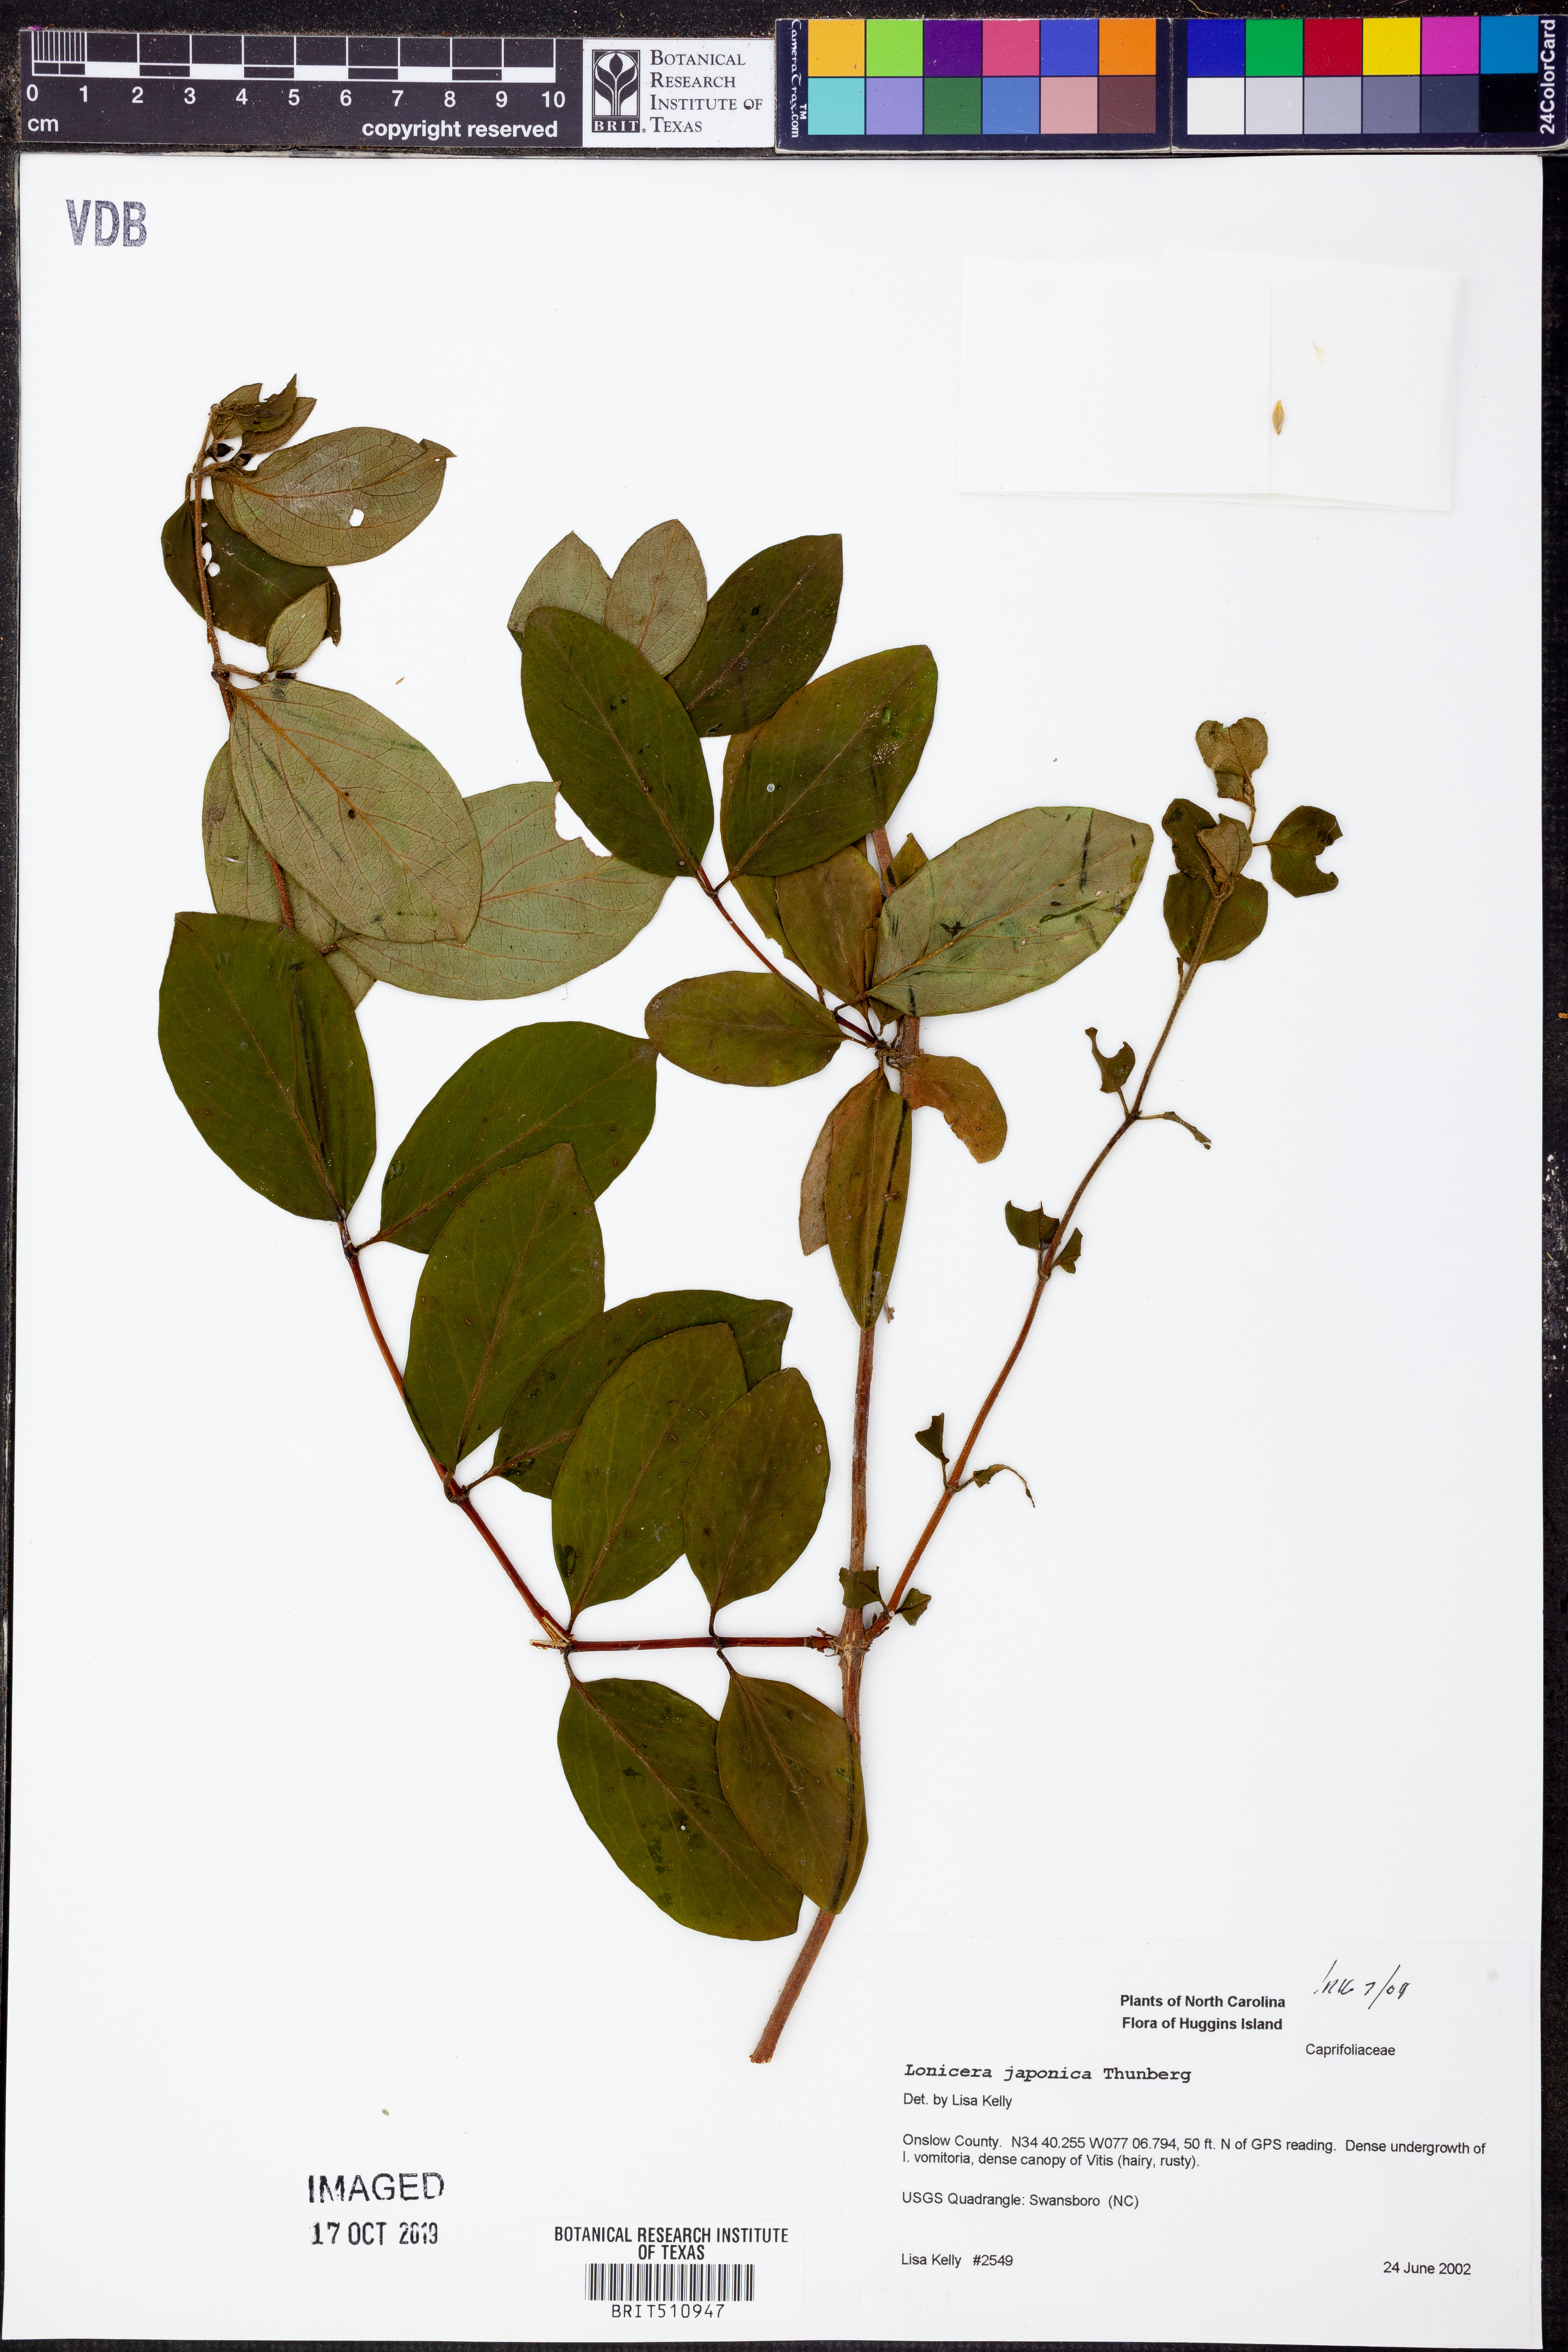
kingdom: Plantae
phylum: Tracheophyta
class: Magnoliopsida
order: Dipsacales
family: Caprifoliaceae
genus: Lonicera
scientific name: Lonicera japonica
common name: Japanese honeysuckle
